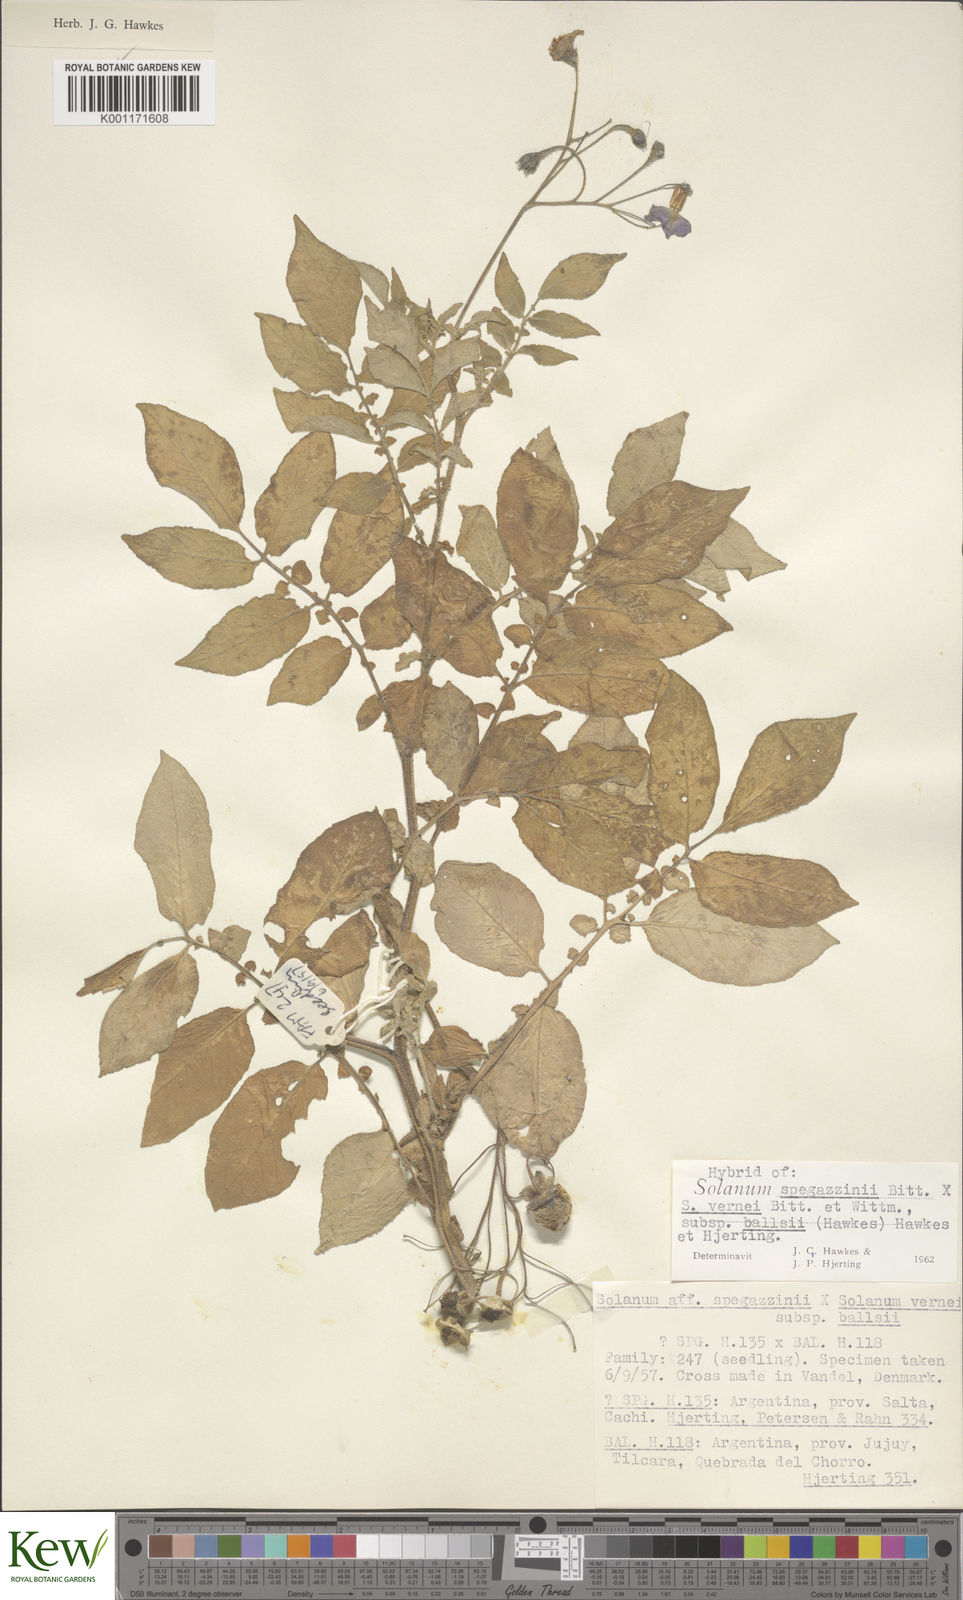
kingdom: Plantae
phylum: Tracheophyta
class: Magnoliopsida
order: Solanales
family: Solanaceae
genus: Solanum
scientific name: Solanum vernei
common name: Purple potato
